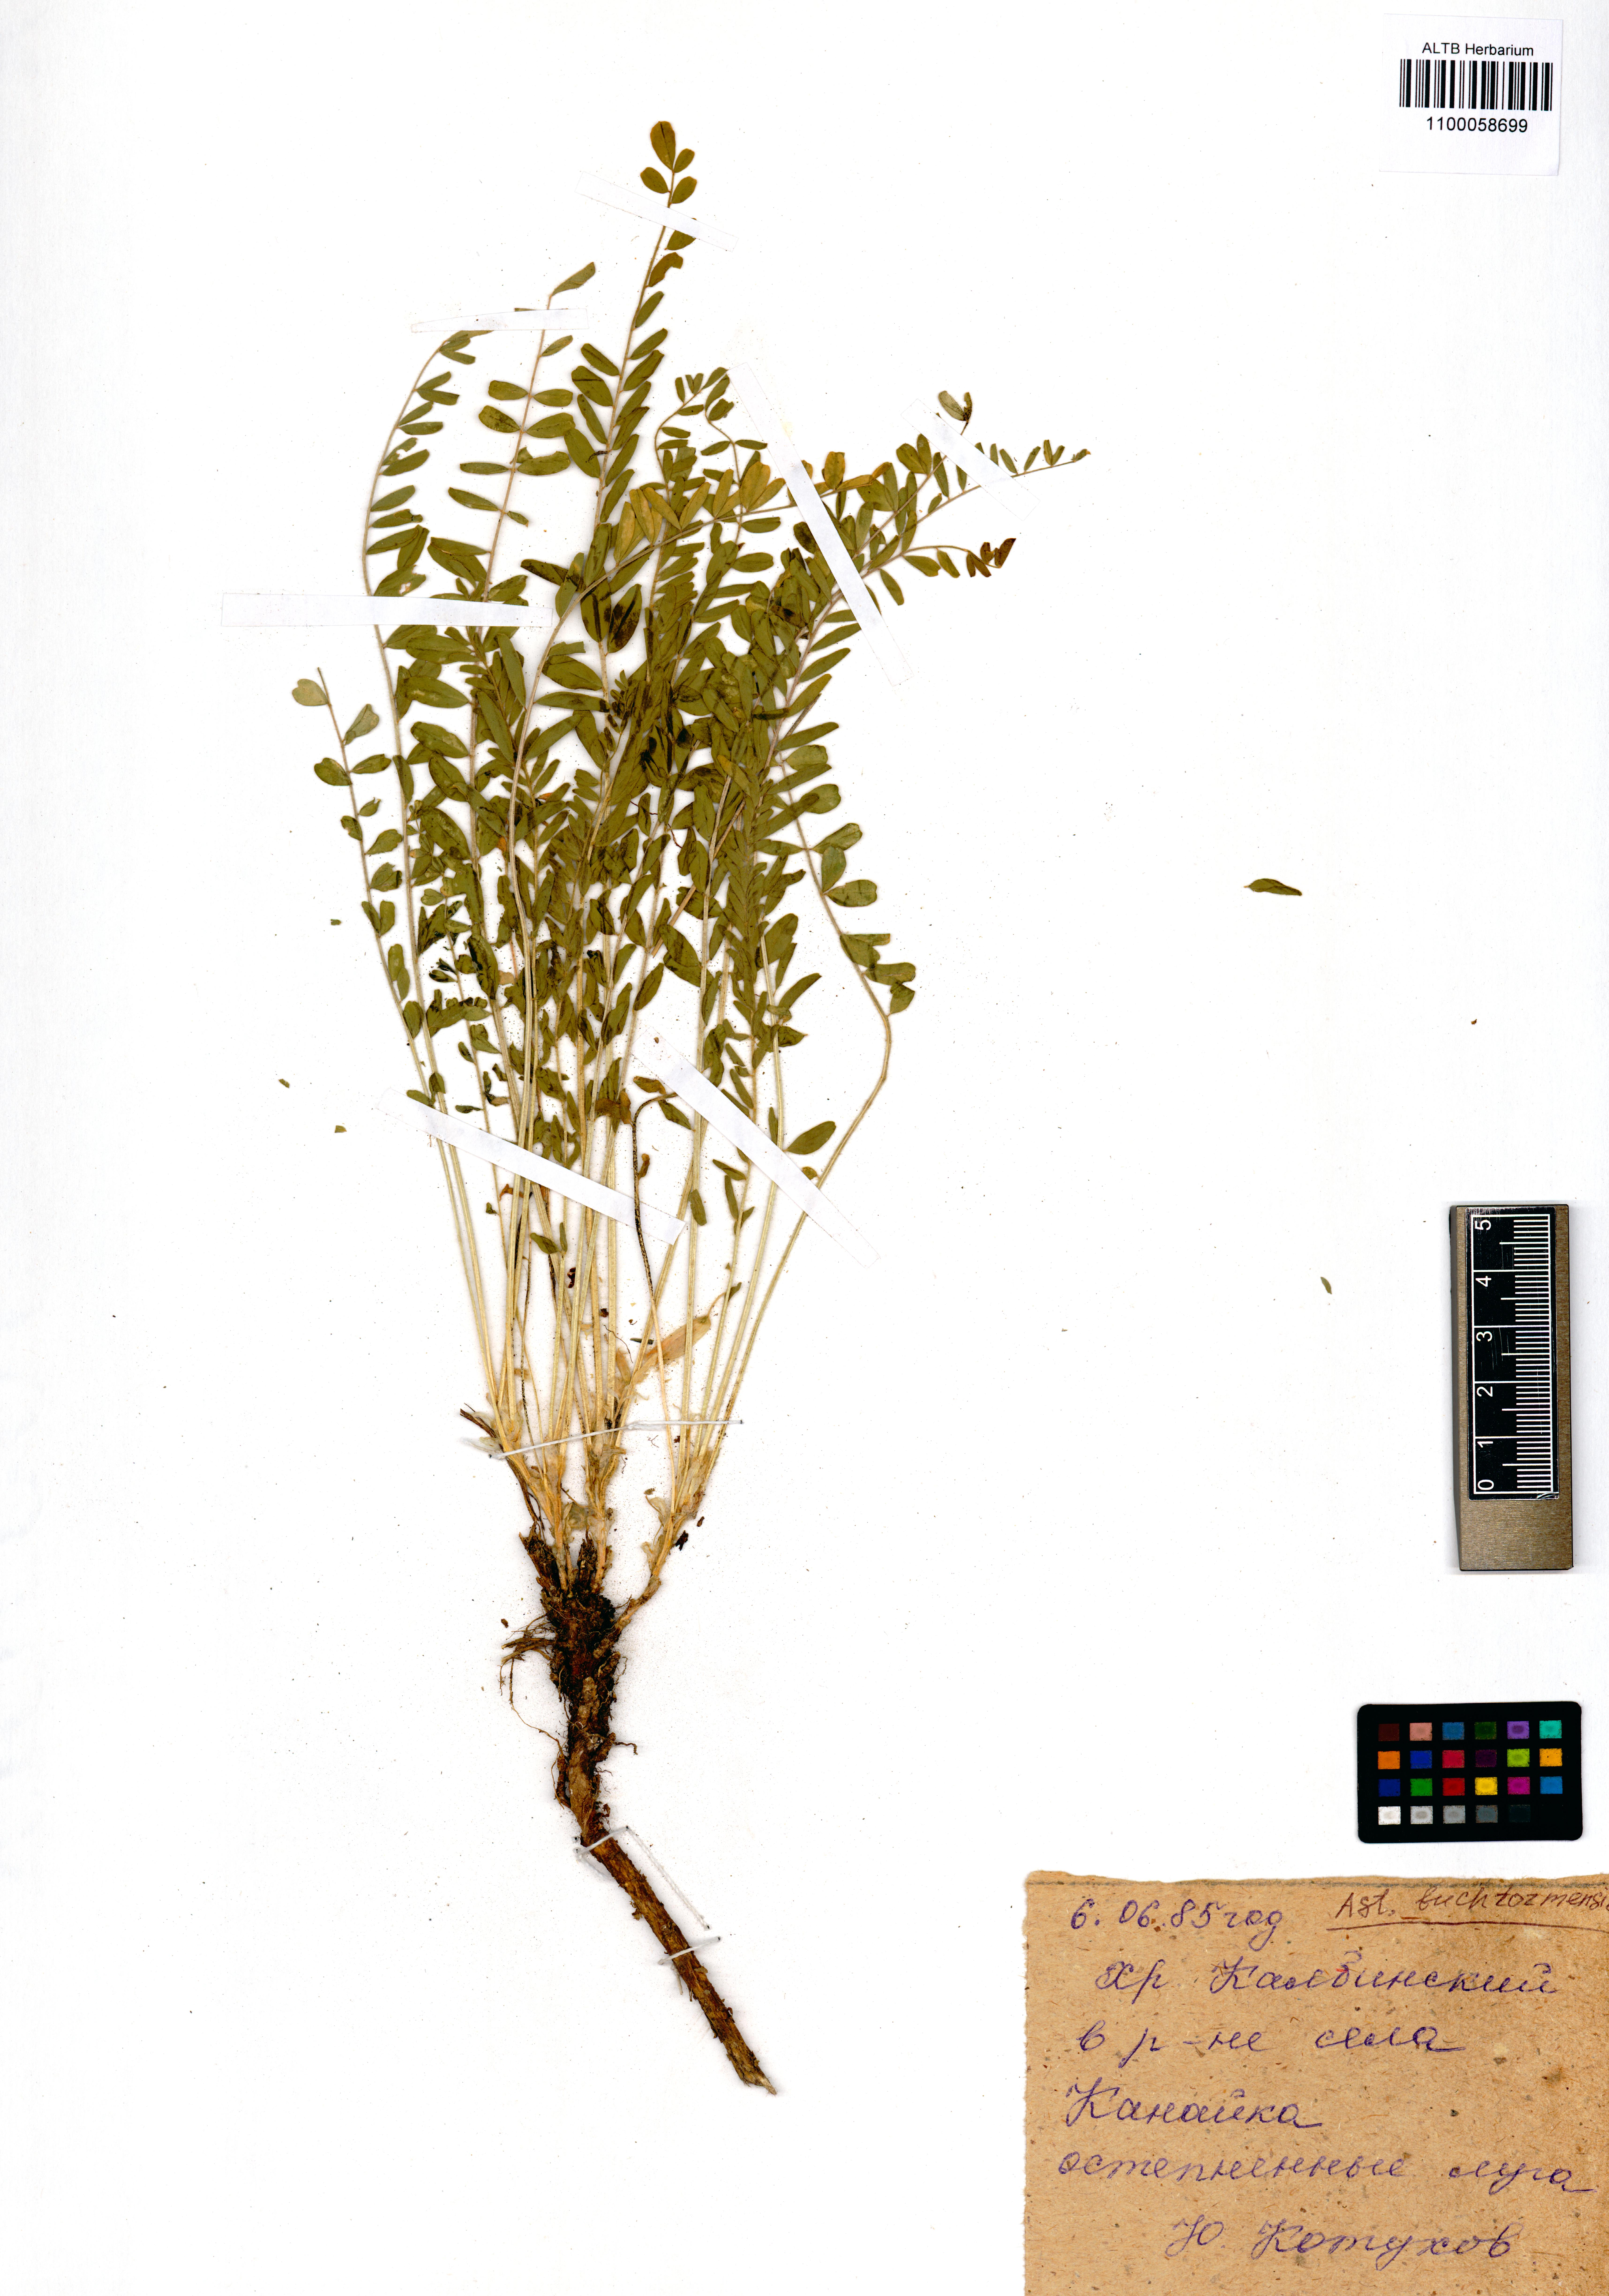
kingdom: Plantae
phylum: Tracheophyta
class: Magnoliopsida
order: Fabales
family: Fabaceae
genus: Oxytropis
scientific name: Oxytropis pallasii
